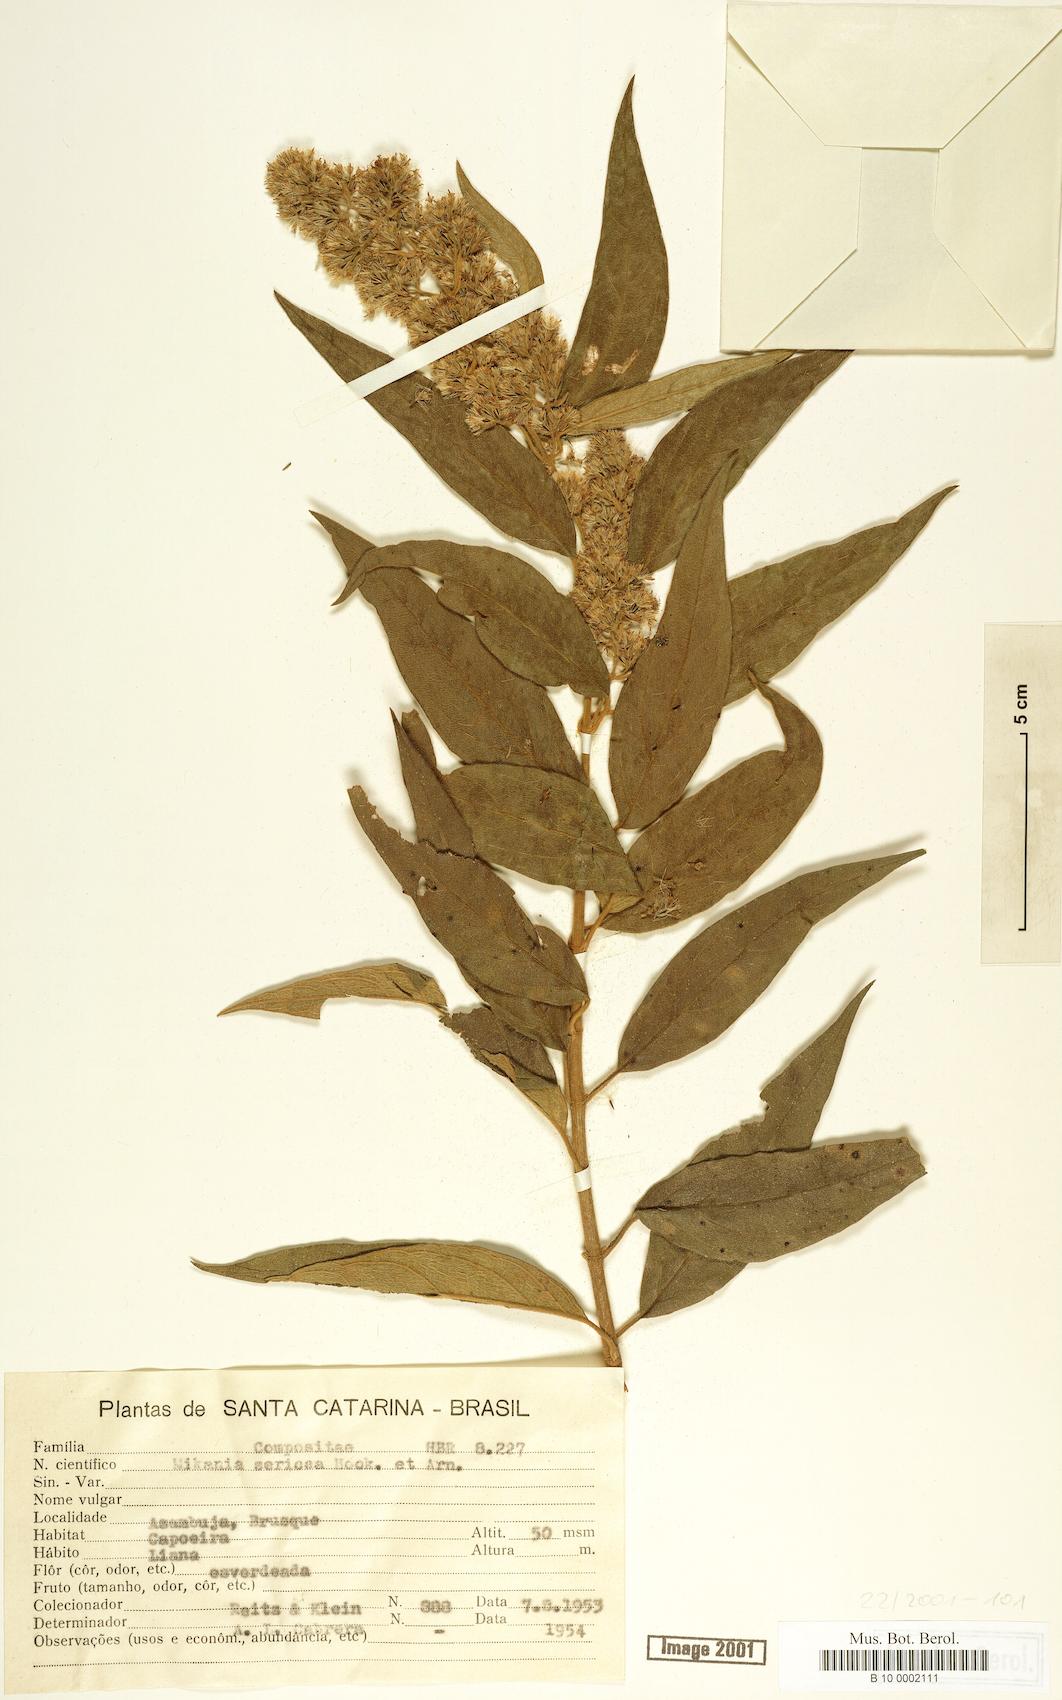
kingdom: Plantae
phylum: Tracheophyta
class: Magnoliopsida
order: Asterales
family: Asteraceae
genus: Mikania
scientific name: Mikania sericea
